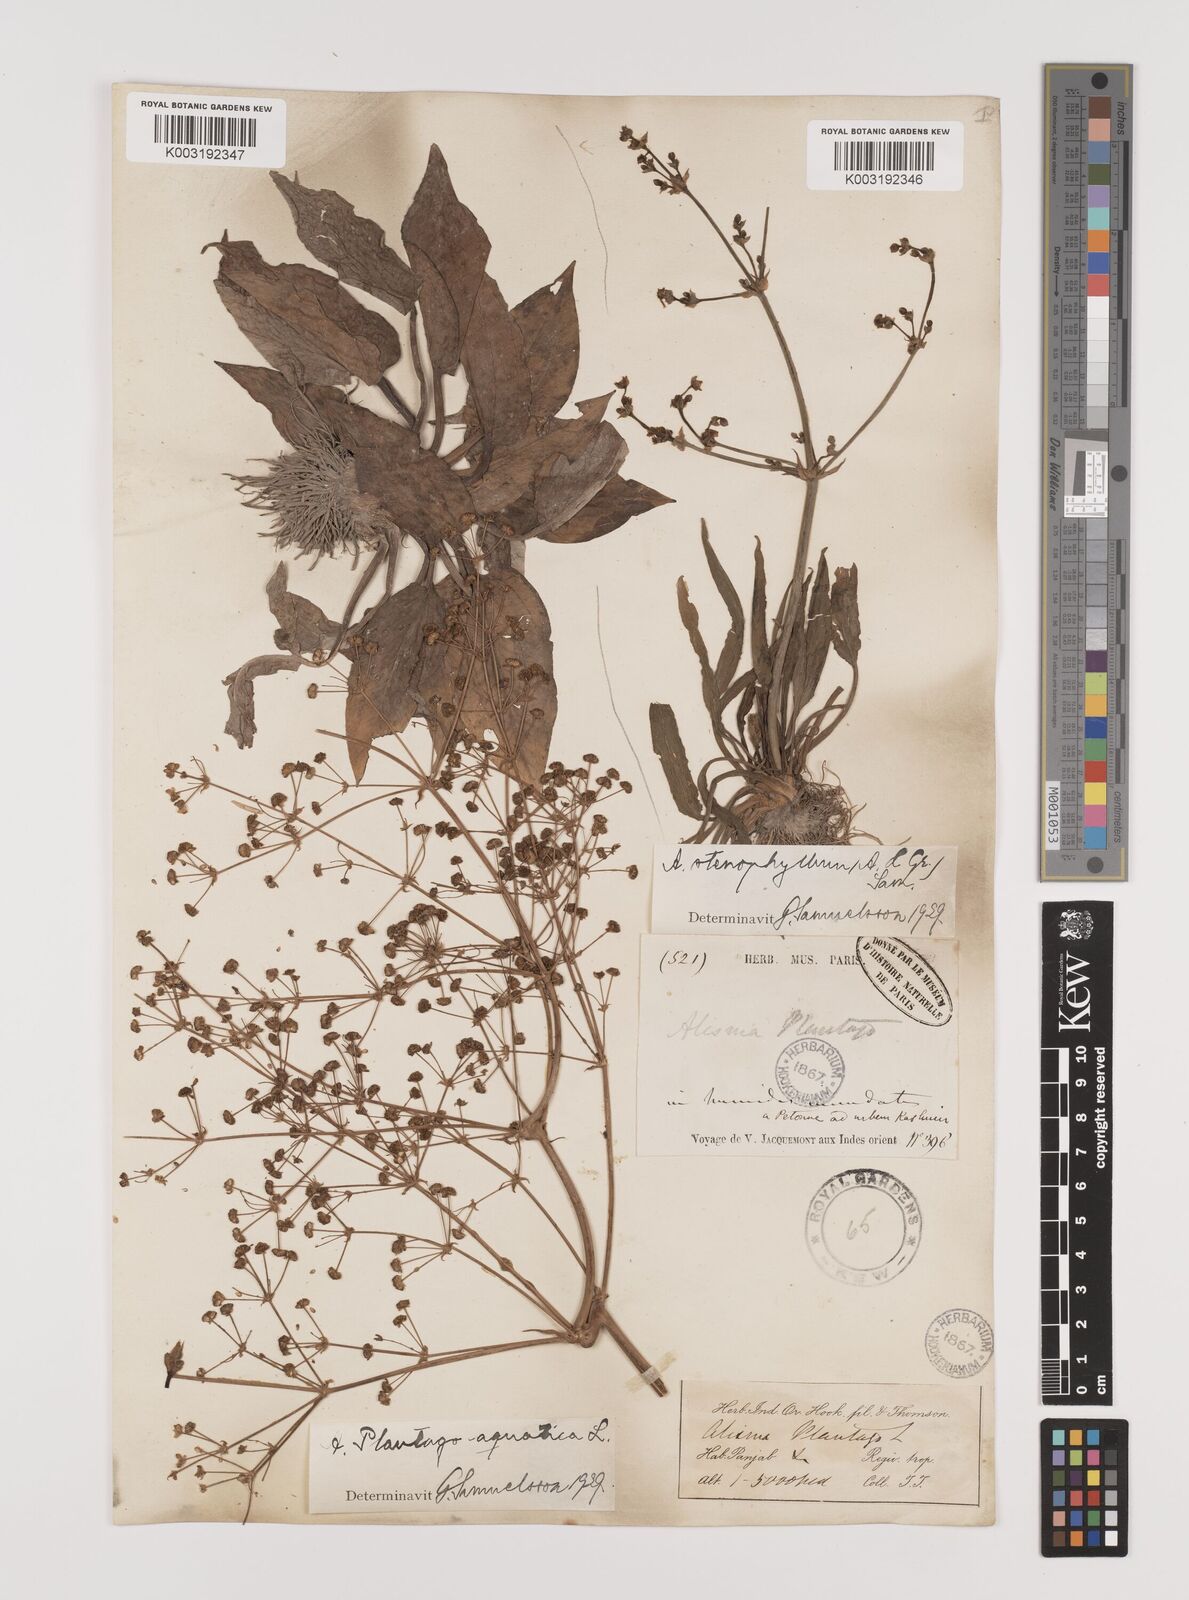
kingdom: Plantae
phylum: Tracheophyta
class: Liliopsida
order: Alismatales
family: Alismataceae
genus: Alisma
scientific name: Alisma plantago-aquatica
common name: Water-plantain
